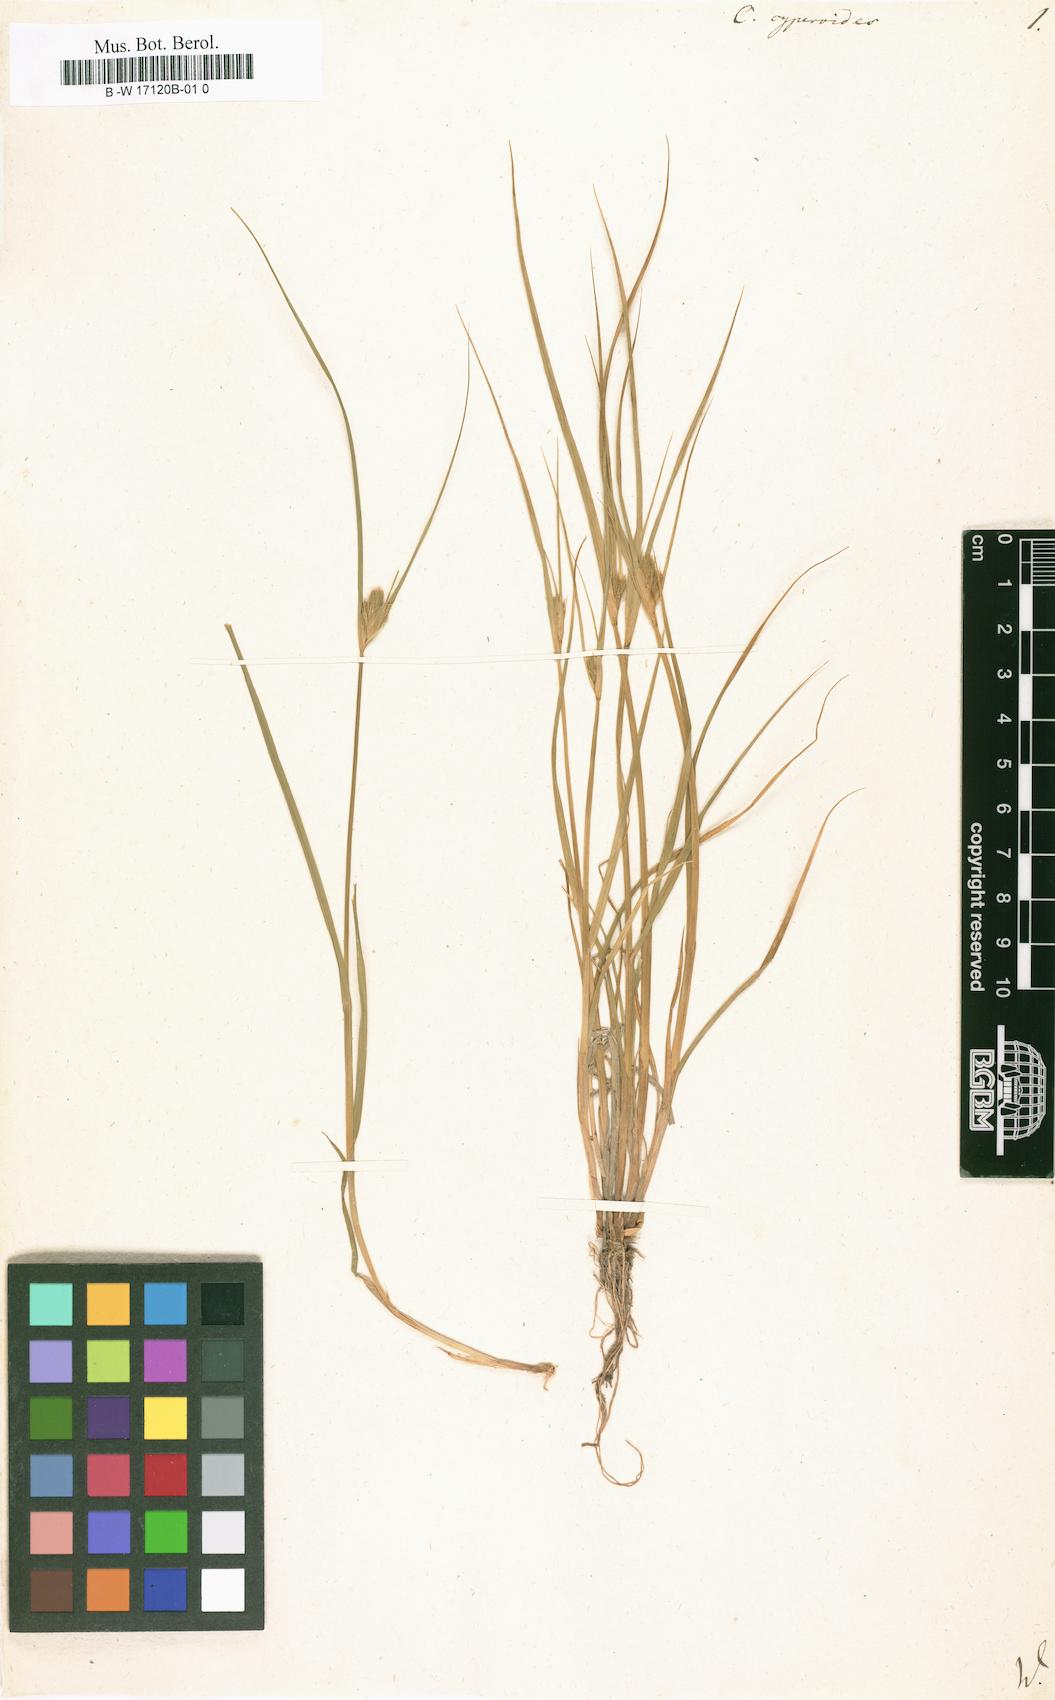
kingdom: Plantae
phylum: Tracheophyta
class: Liliopsida
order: Poales
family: Cyperaceae
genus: Carex
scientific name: Carex bohemica
